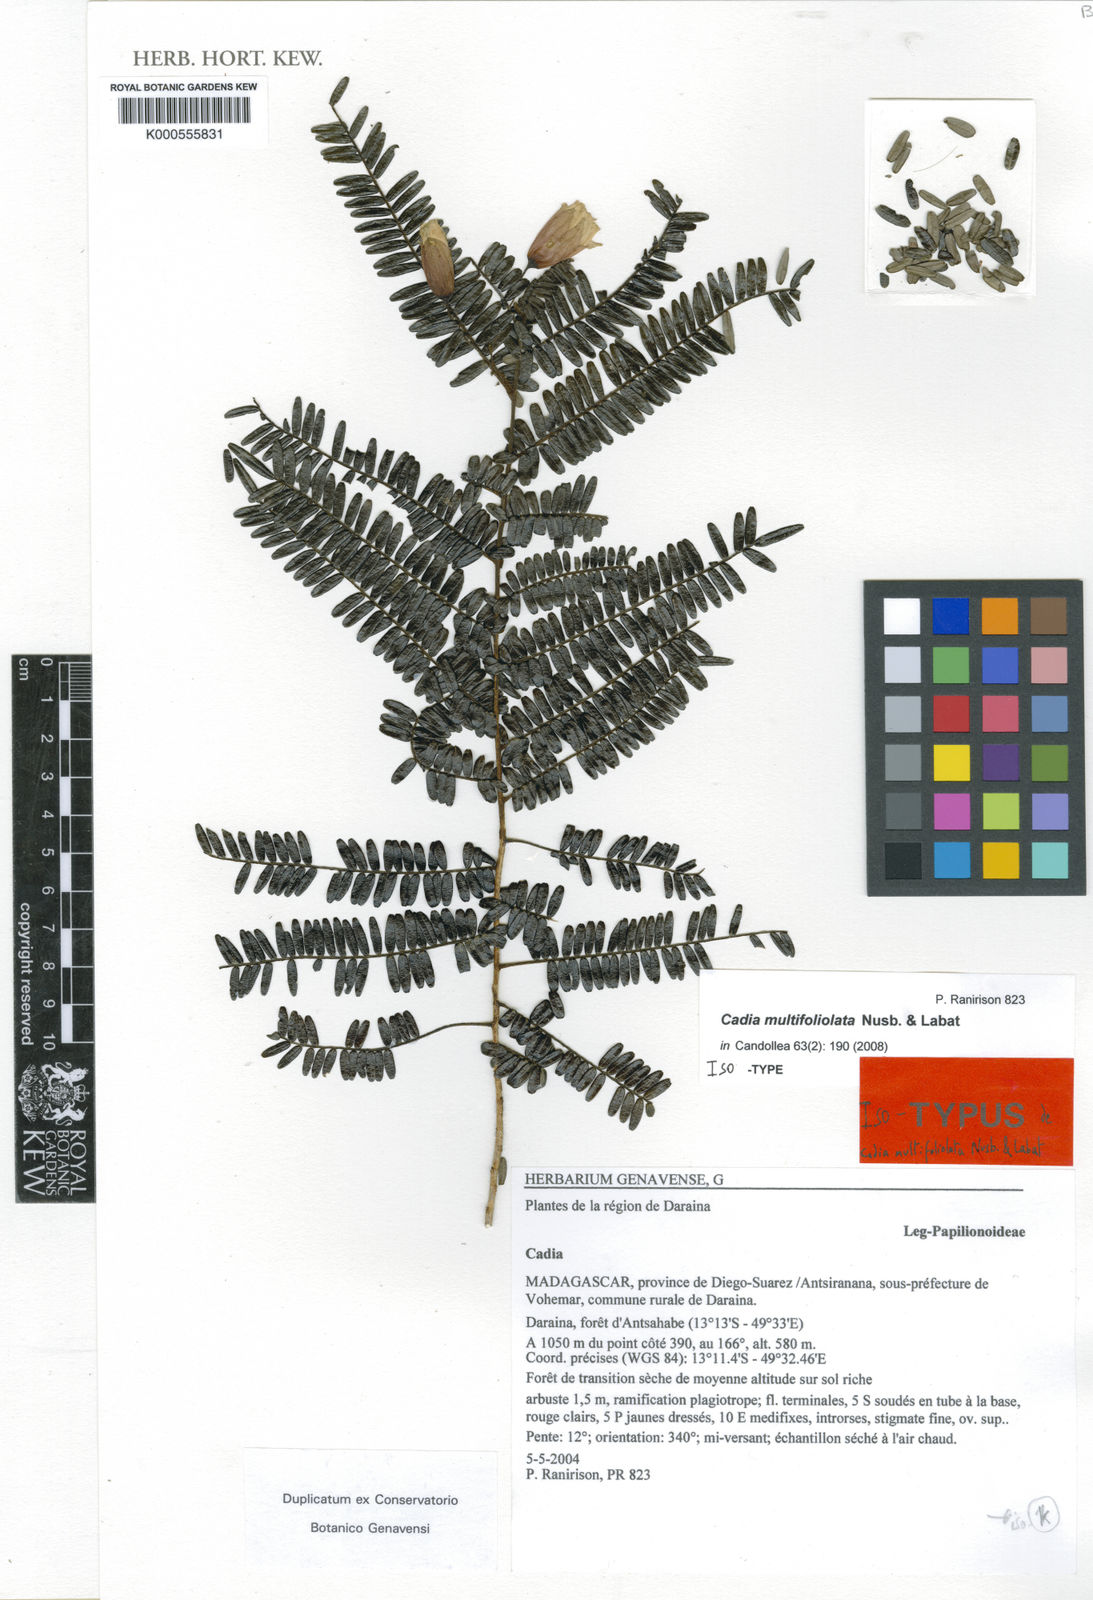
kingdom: Plantae
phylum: Tracheophyta
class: Magnoliopsida
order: Fabales
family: Fabaceae
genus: Cadia
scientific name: Cadia multifoliolata
